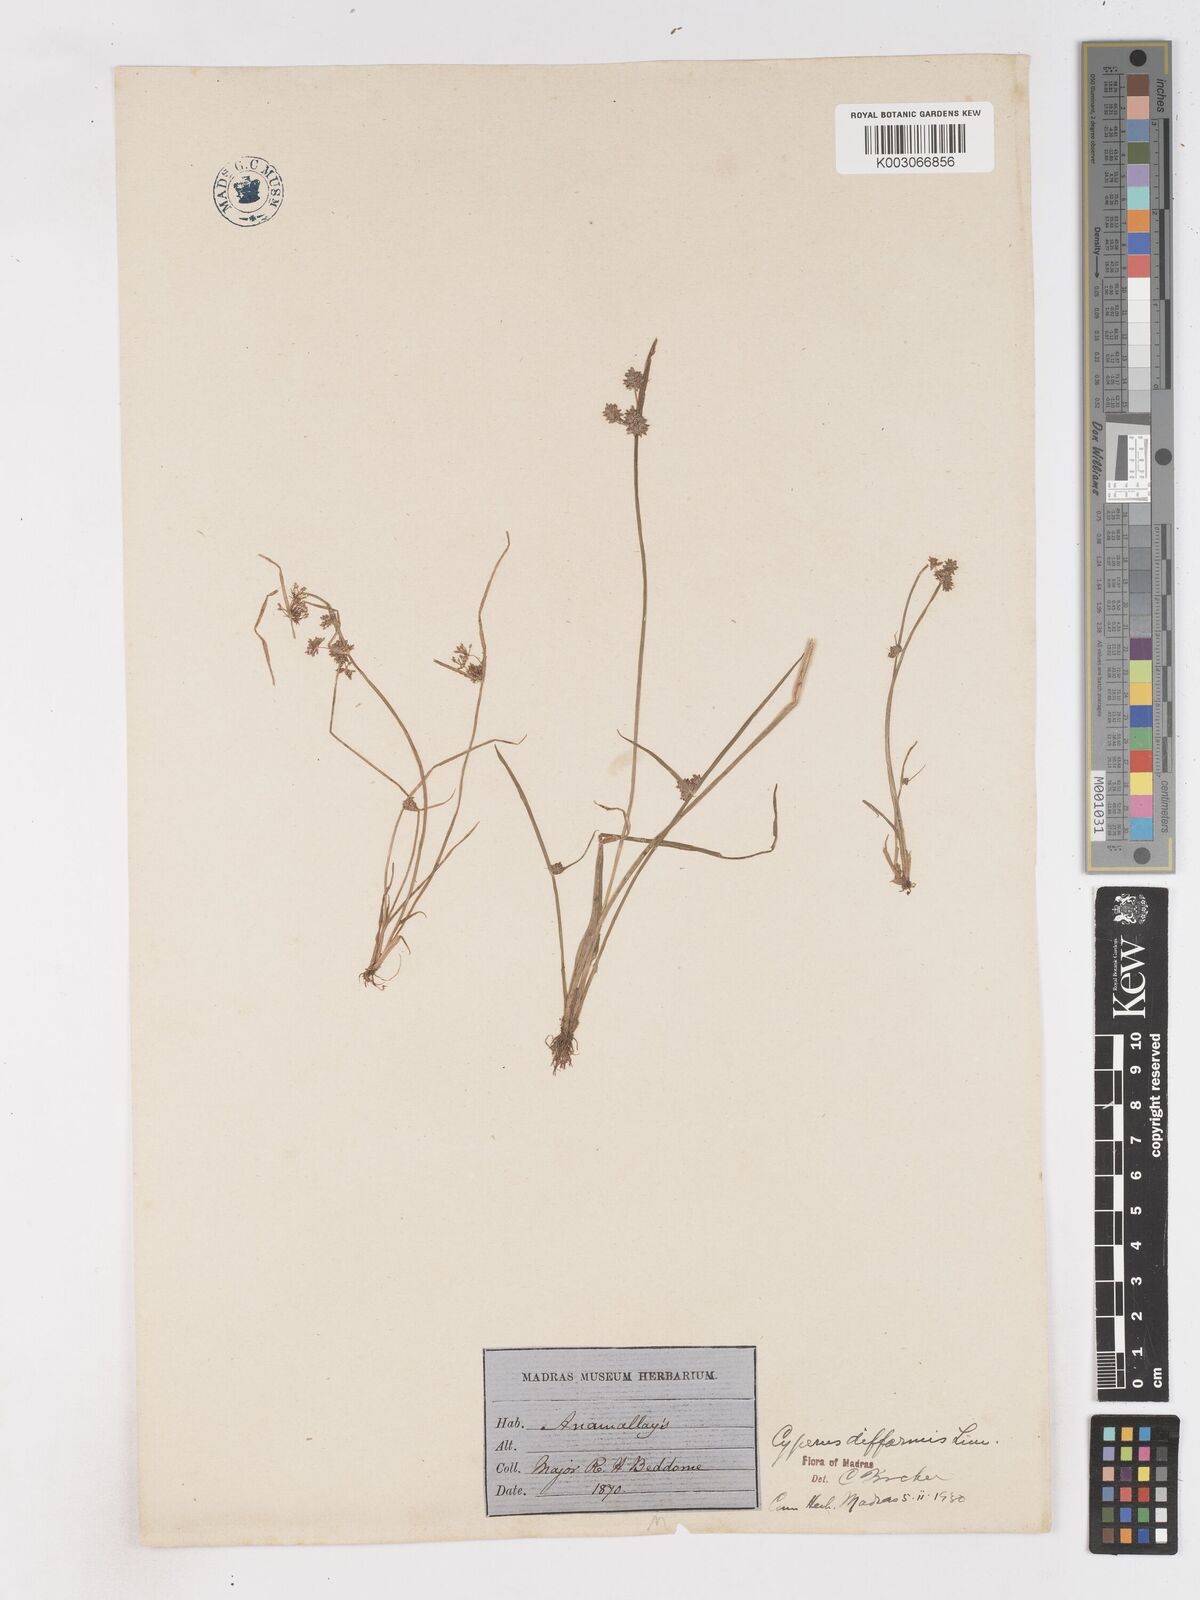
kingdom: Plantae
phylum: Tracheophyta
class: Liliopsida
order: Poales
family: Cyperaceae
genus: Cyperus
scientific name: Cyperus difformis
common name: Variable flatsedge
